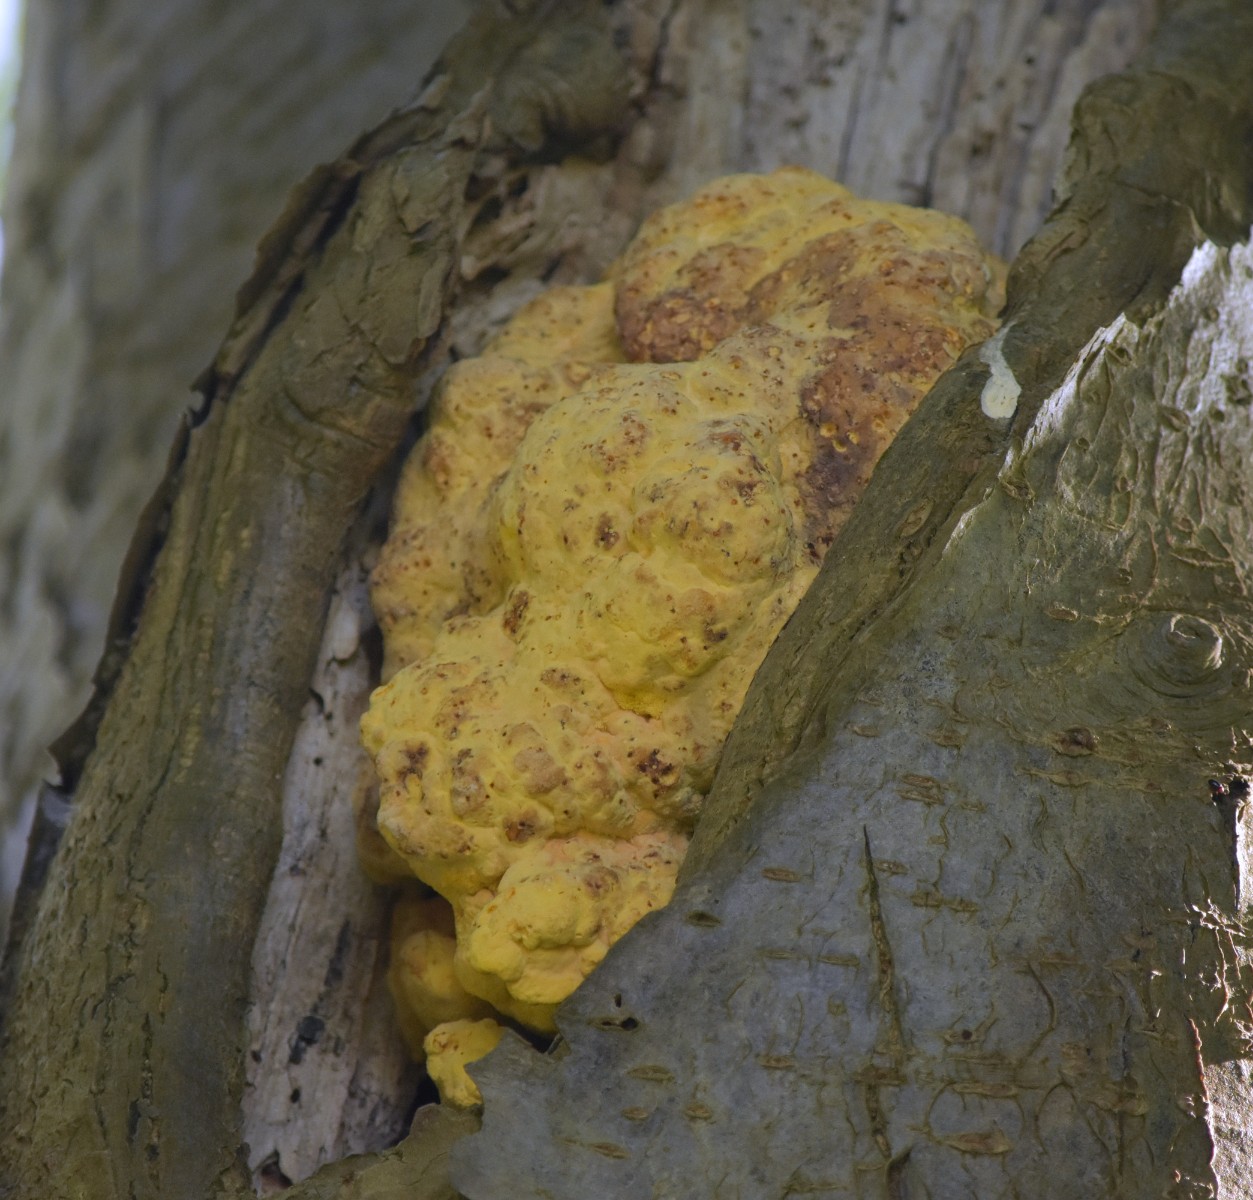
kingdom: Fungi
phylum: Basidiomycota
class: Agaricomycetes
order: Polyporales
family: Laetiporaceae
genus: Laetiporus
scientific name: Laetiporus sulphureus
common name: svovlporesvamp
